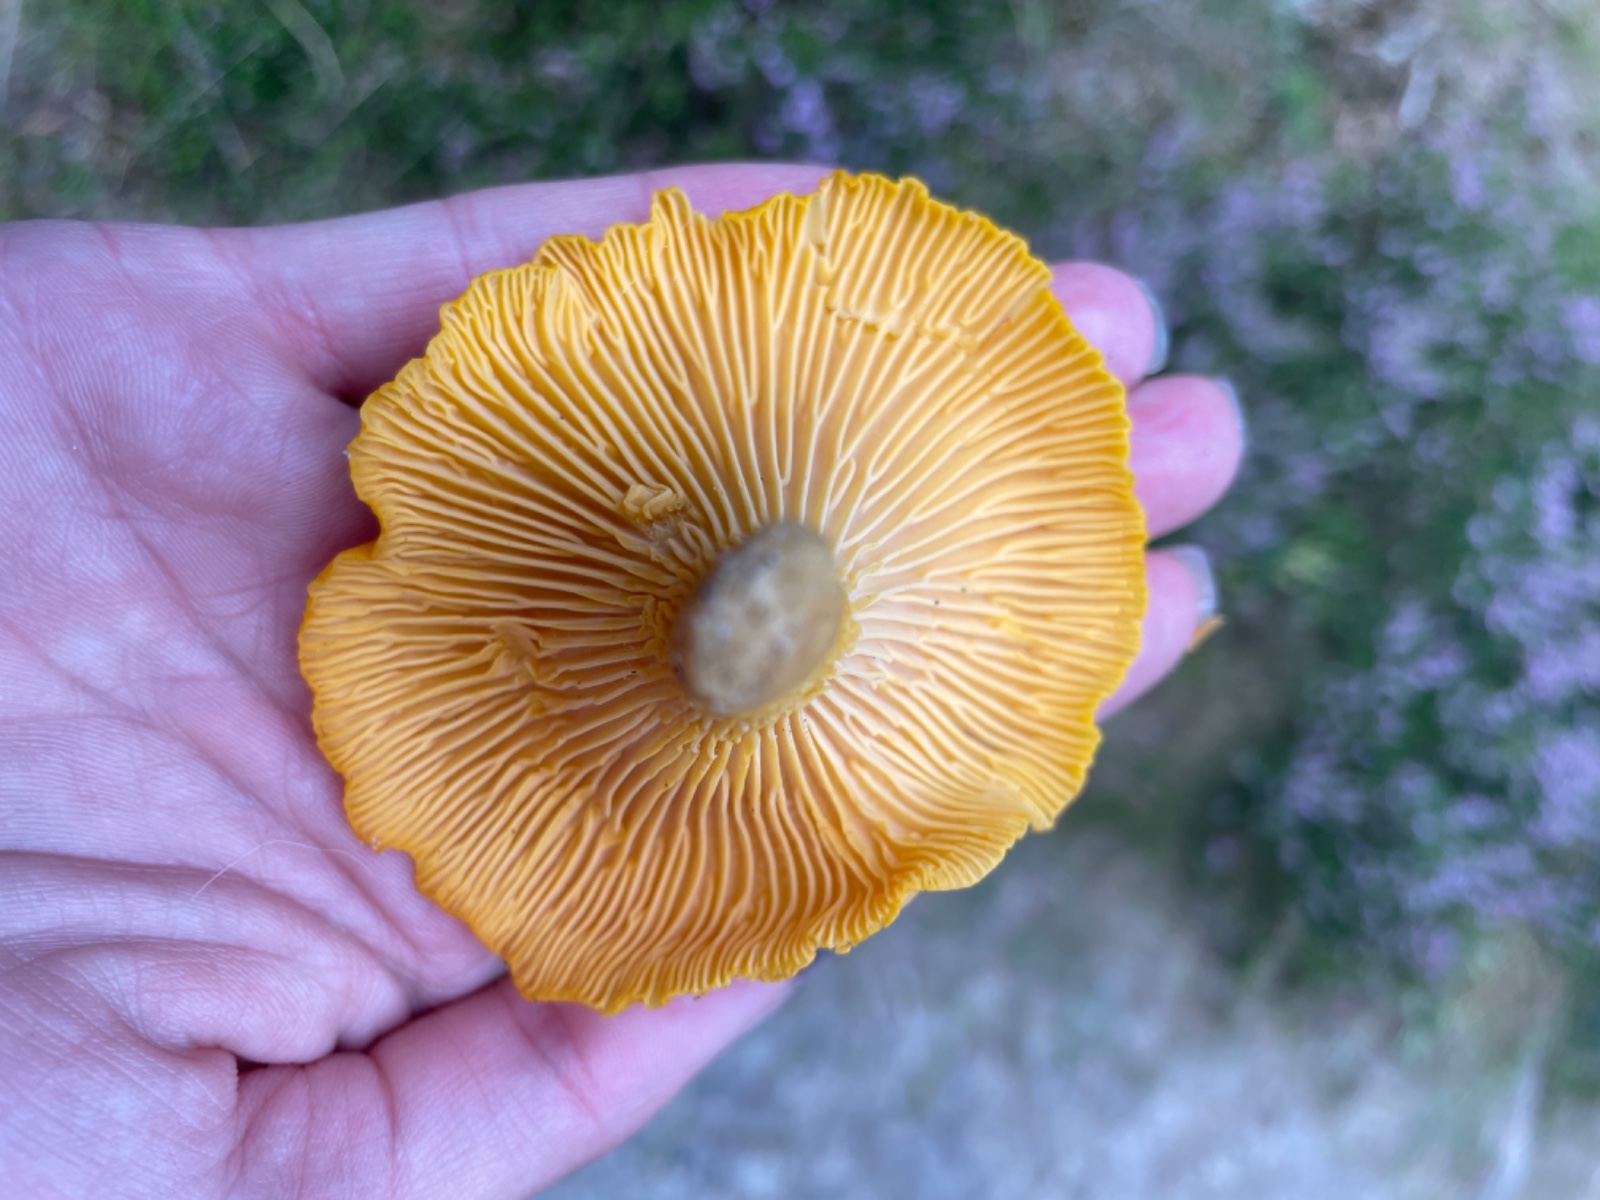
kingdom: Fungi
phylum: Basidiomycota
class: Agaricomycetes
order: Cantharellales
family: Hydnaceae
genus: Cantharellus
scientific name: Cantharellus cibarius
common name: almindelig kantarel
